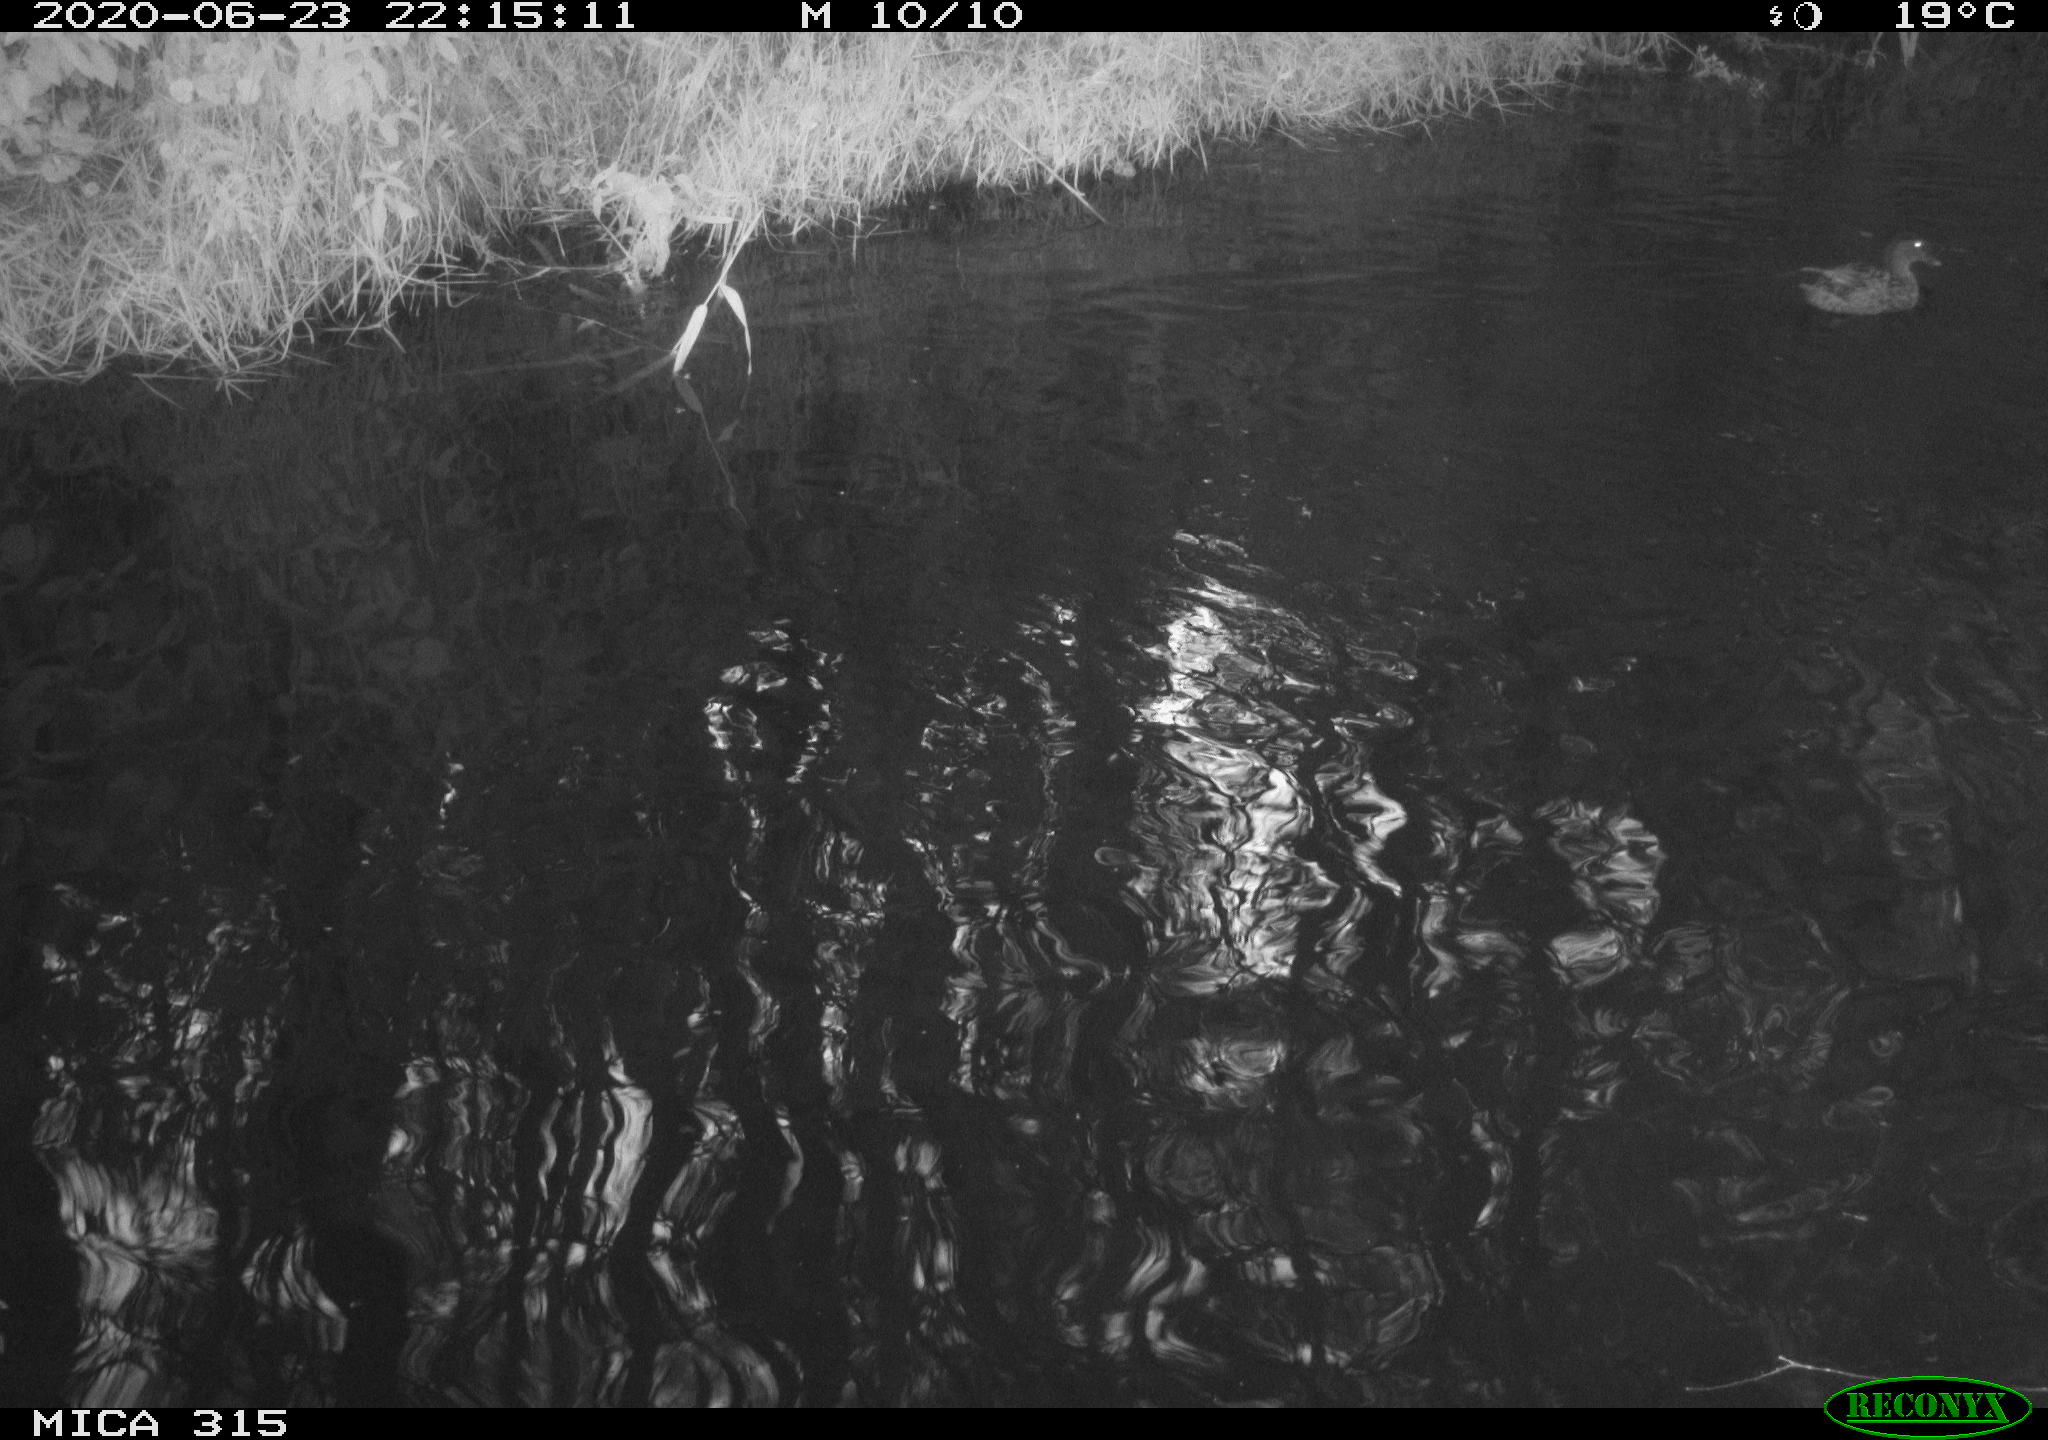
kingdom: Animalia
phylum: Chordata
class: Aves
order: Anseriformes
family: Anatidae
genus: Anas
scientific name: Anas platyrhynchos
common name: Mallard
